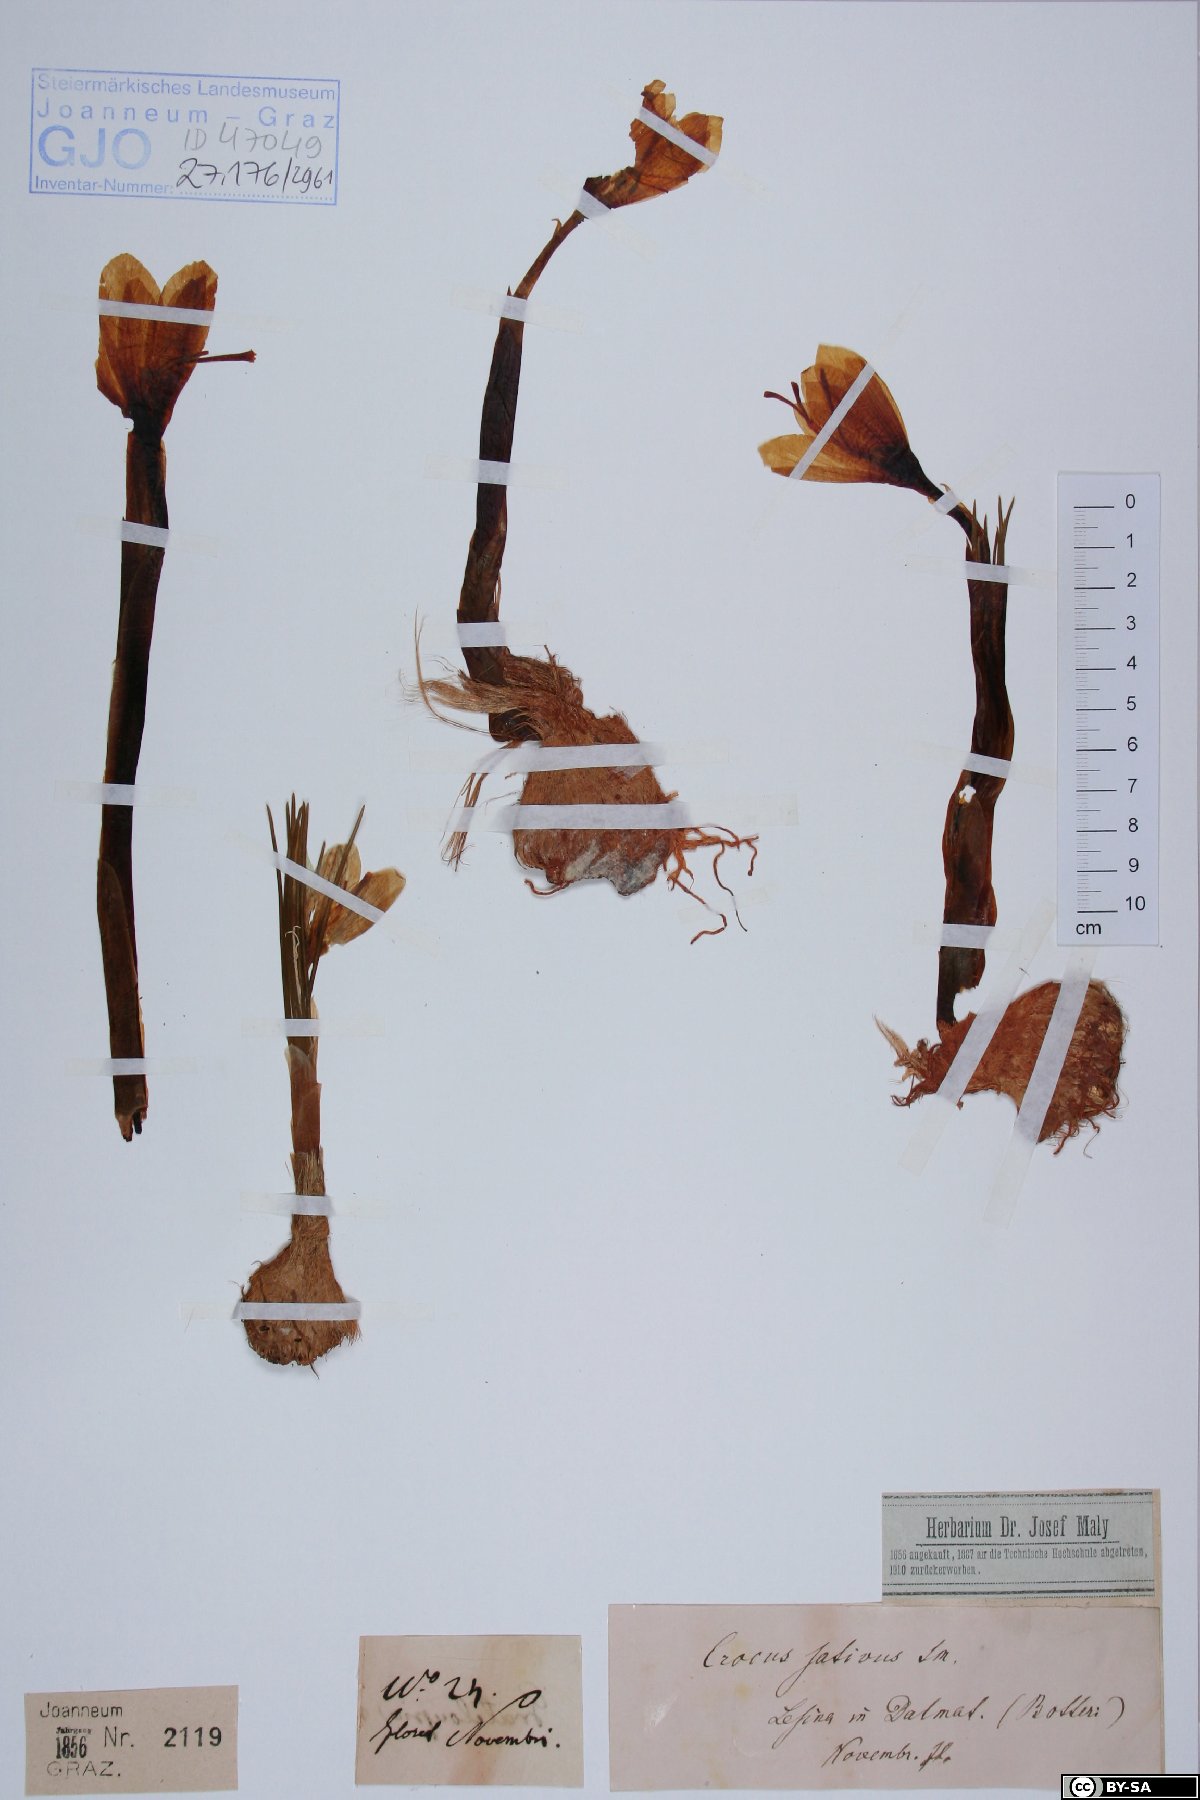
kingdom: Plantae
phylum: Tracheophyta
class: Liliopsida
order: Asparagales
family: Iridaceae
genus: Crocus
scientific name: Crocus sativus
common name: Saffron crocus
